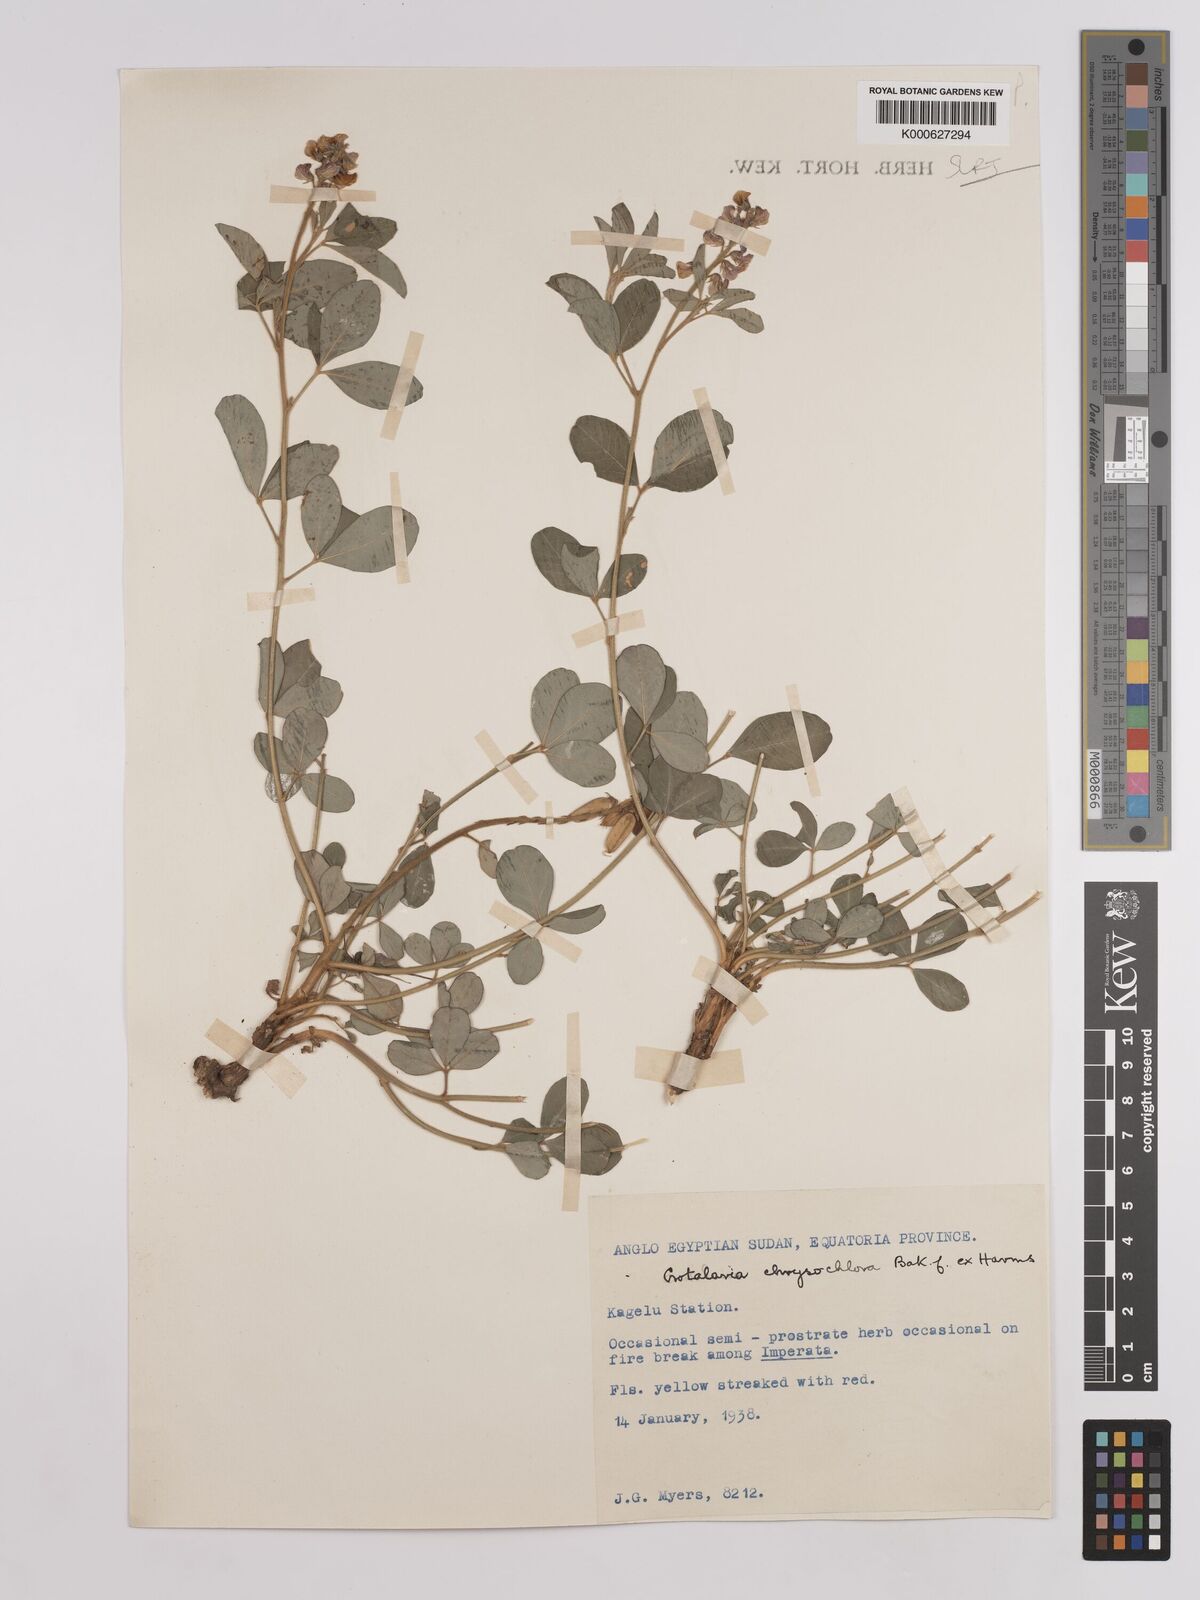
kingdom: Plantae
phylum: Tracheophyta
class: Magnoliopsida
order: Fabales
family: Fabaceae
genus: Crotalaria
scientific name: Crotalaria chrysochlora ex
